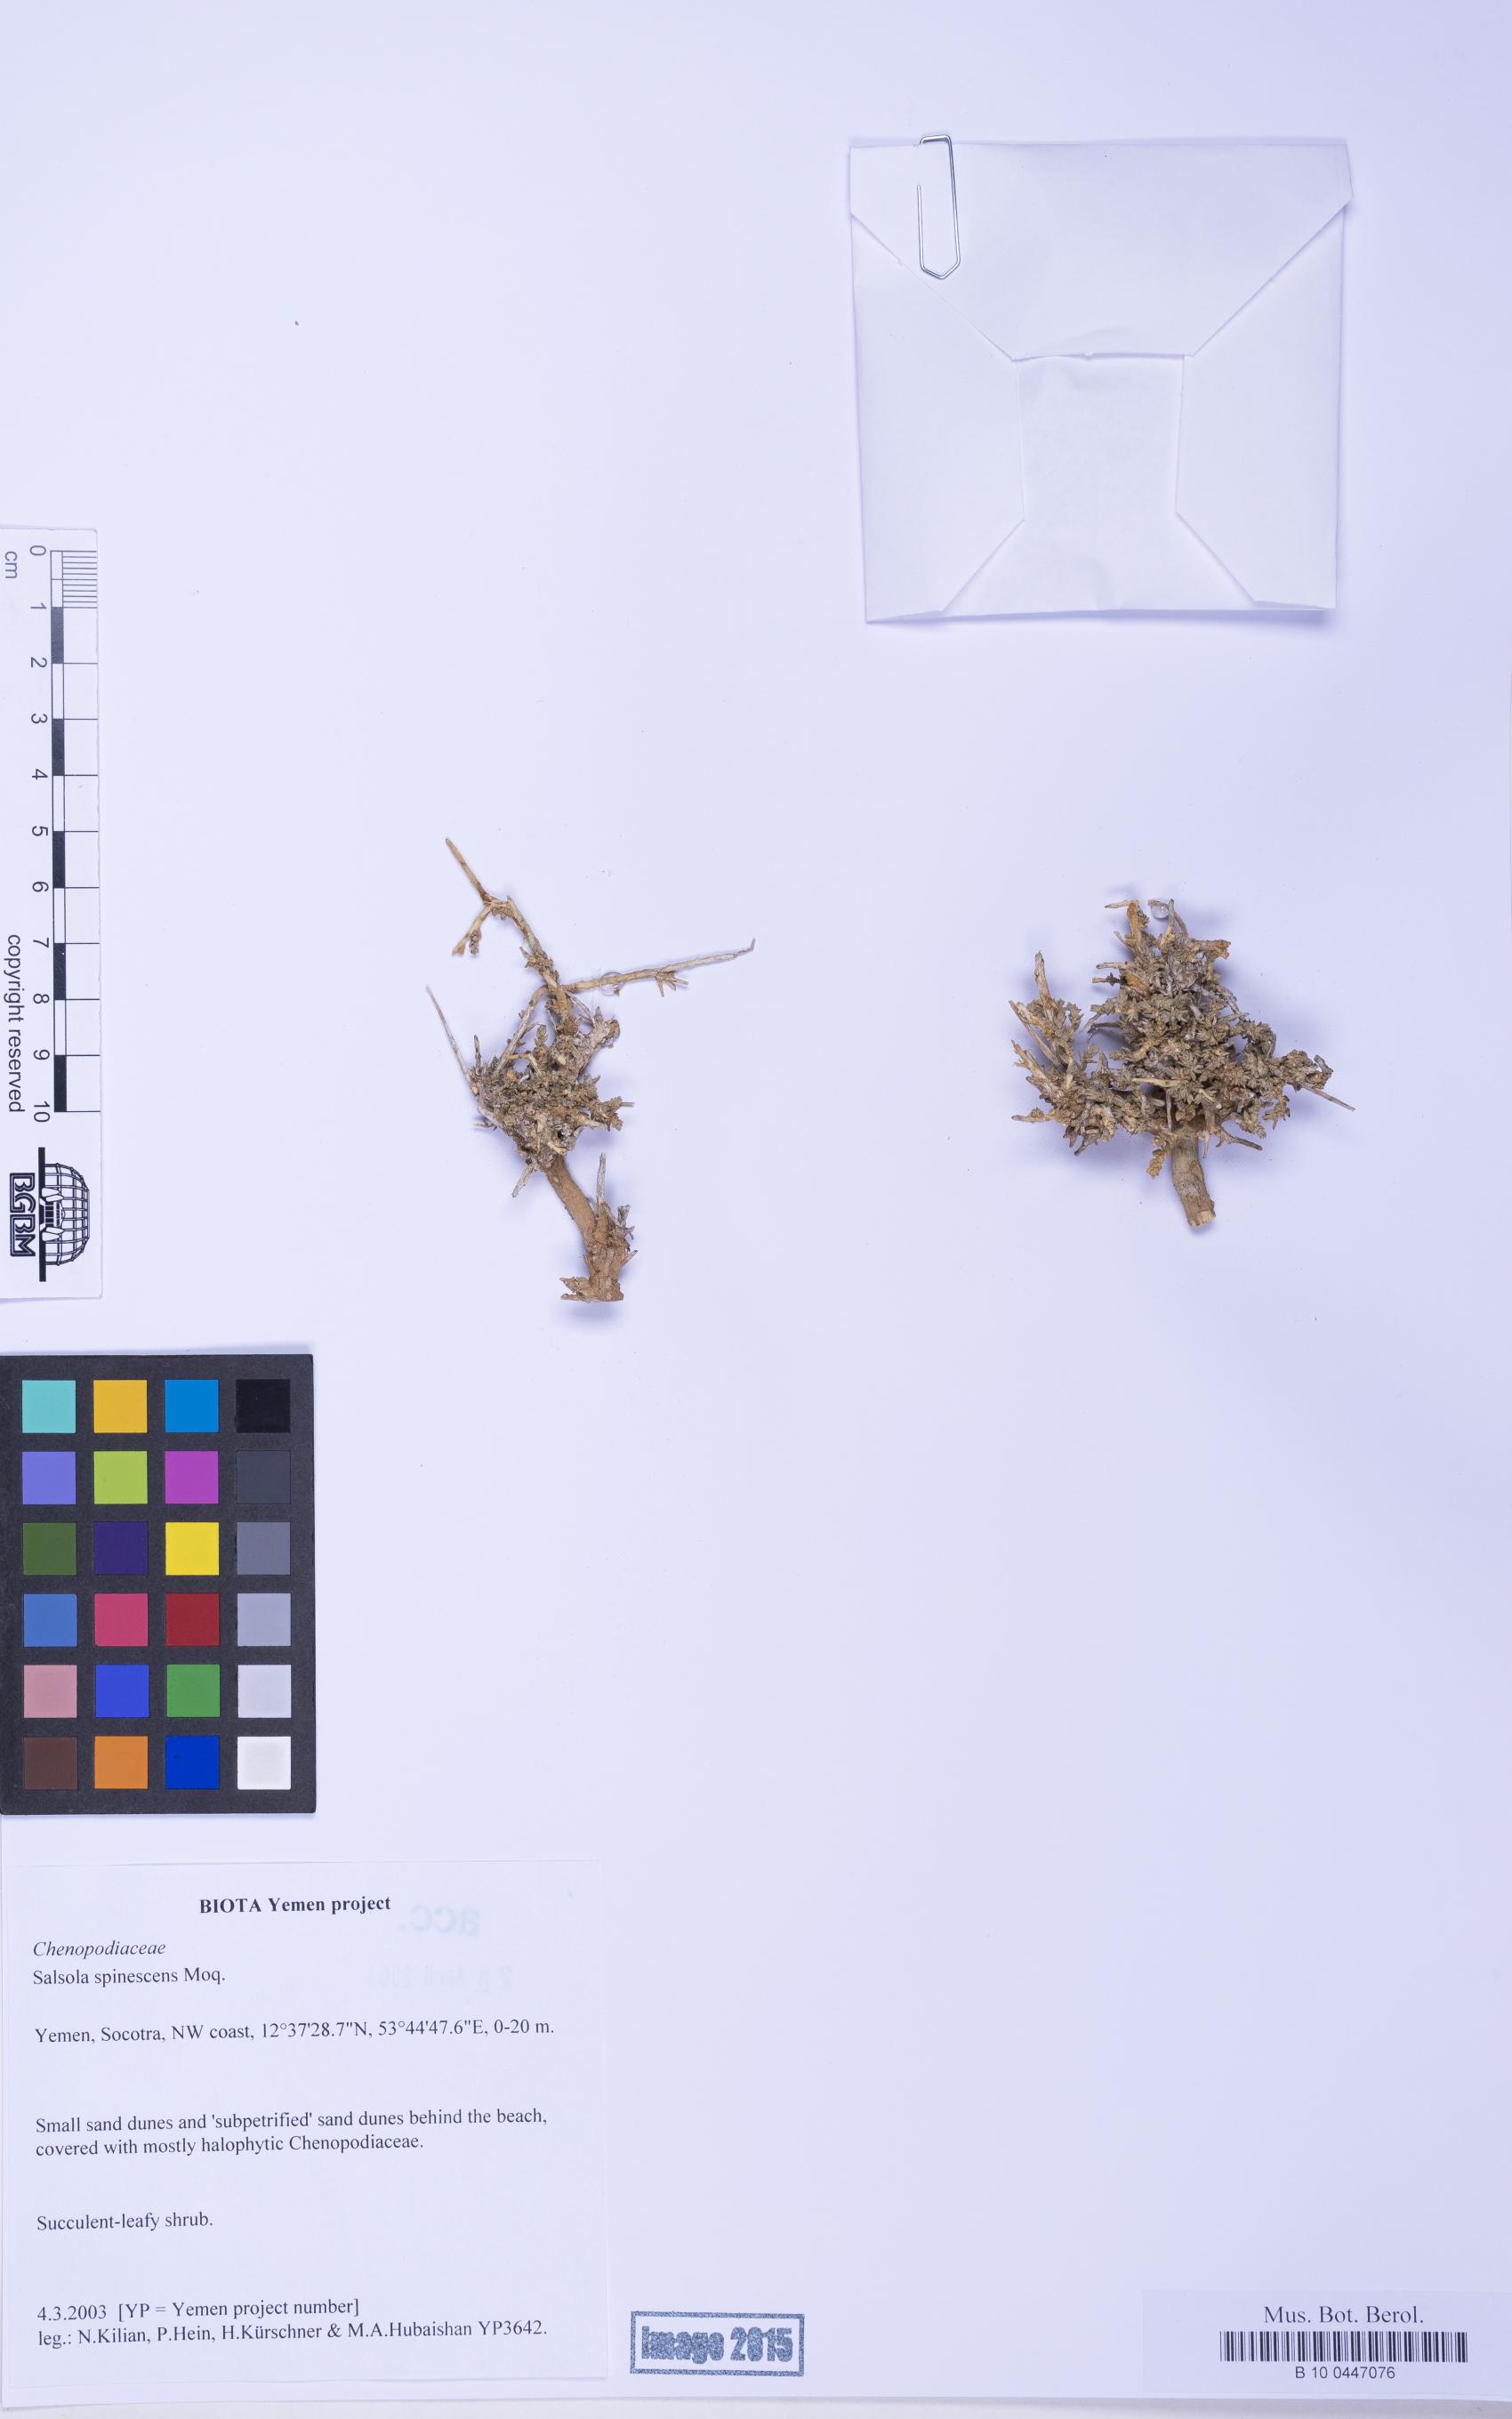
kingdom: Plantae
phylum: Tracheophyta
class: Magnoliopsida
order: Caryophyllales
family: Amaranthaceae
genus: Caroxylon
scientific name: Caroxylon spinescens
